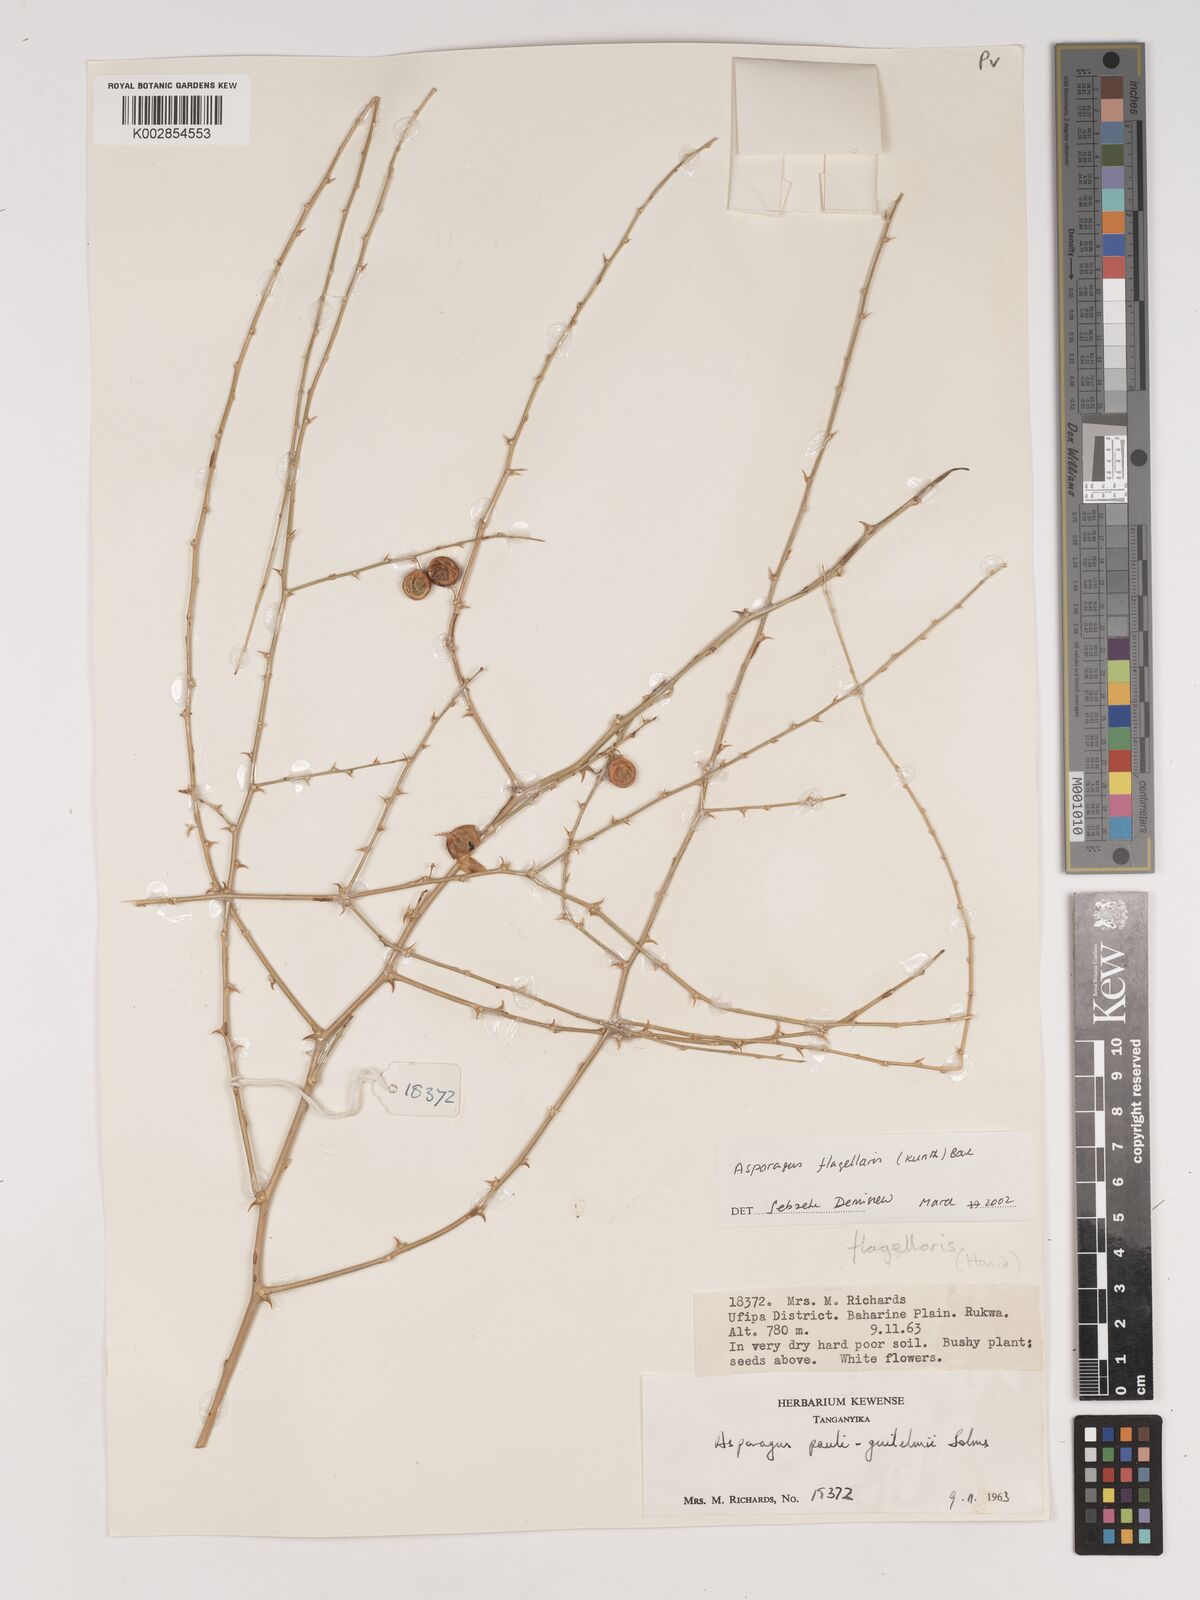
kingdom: Plantae
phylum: Tracheophyta
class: Liliopsida
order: Asparagales
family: Asparagaceae
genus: Asparagus
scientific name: Asparagus flagellaris
